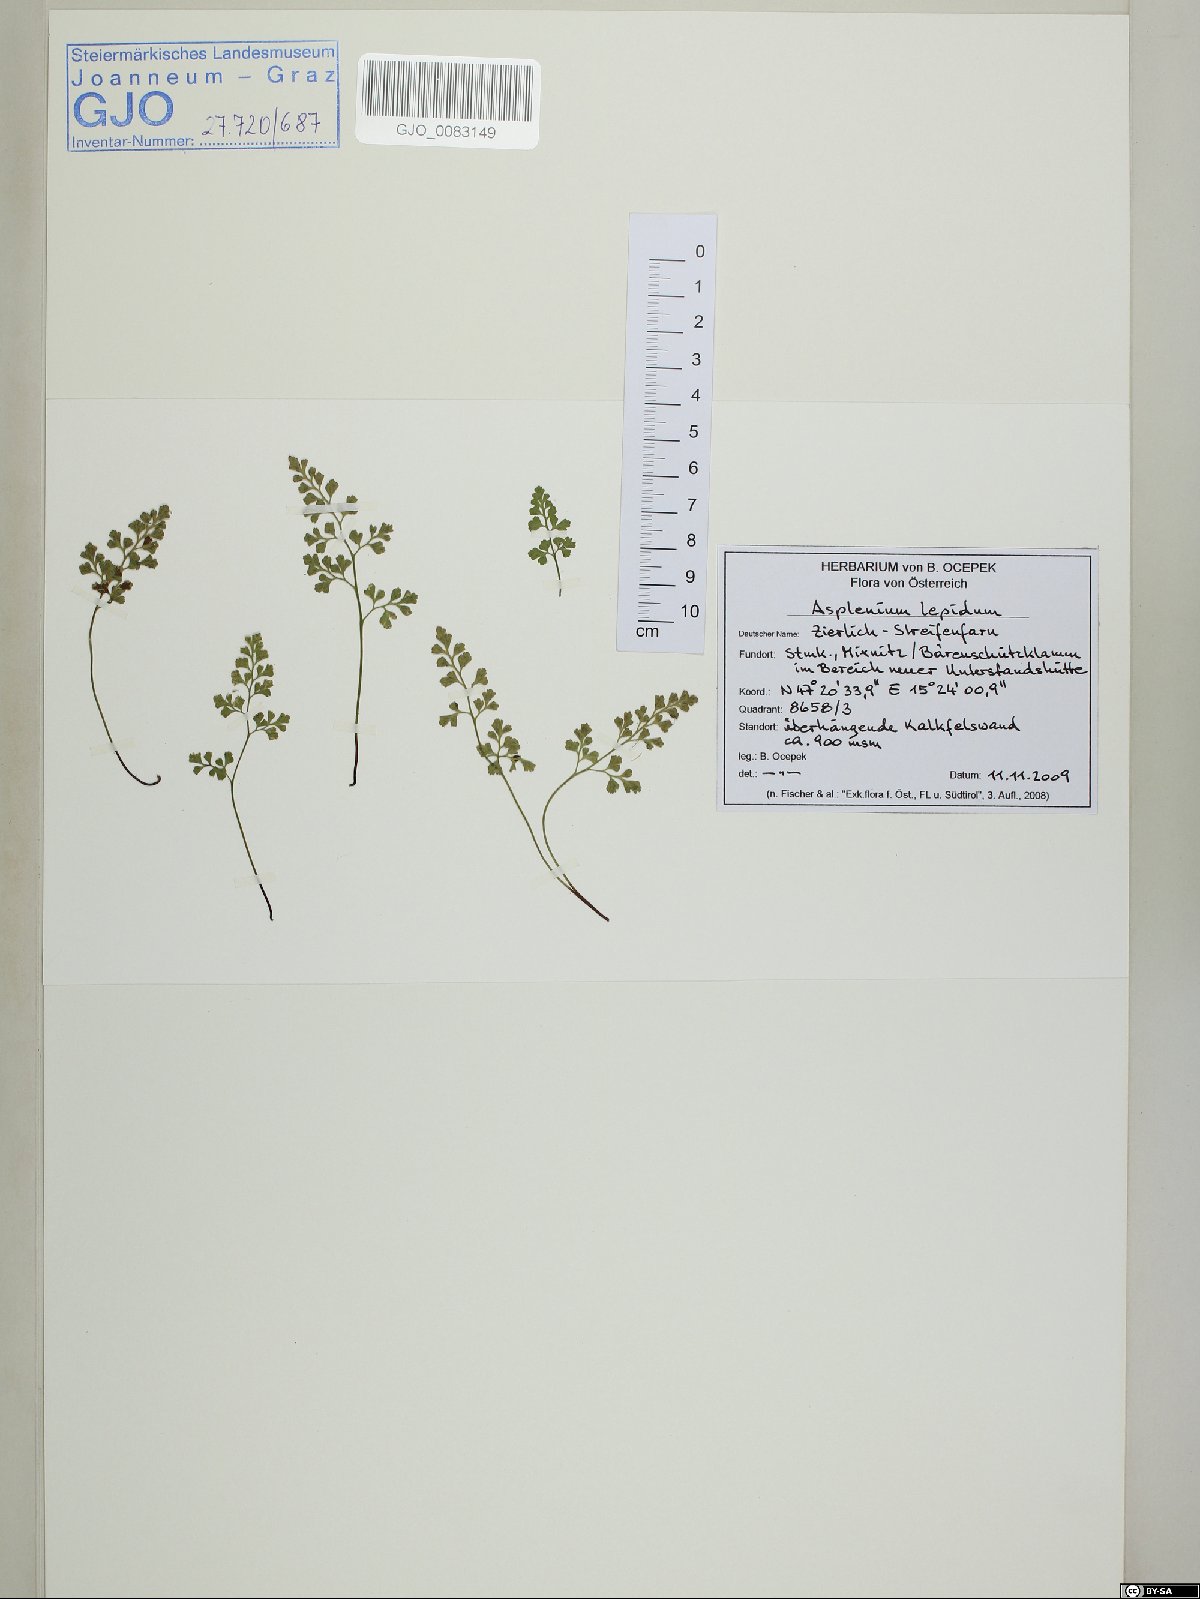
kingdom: Plantae
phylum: Tracheophyta
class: Polypodiopsida
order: Polypodiales
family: Aspleniaceae
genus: Asplenium
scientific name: Asplenium lepidum
